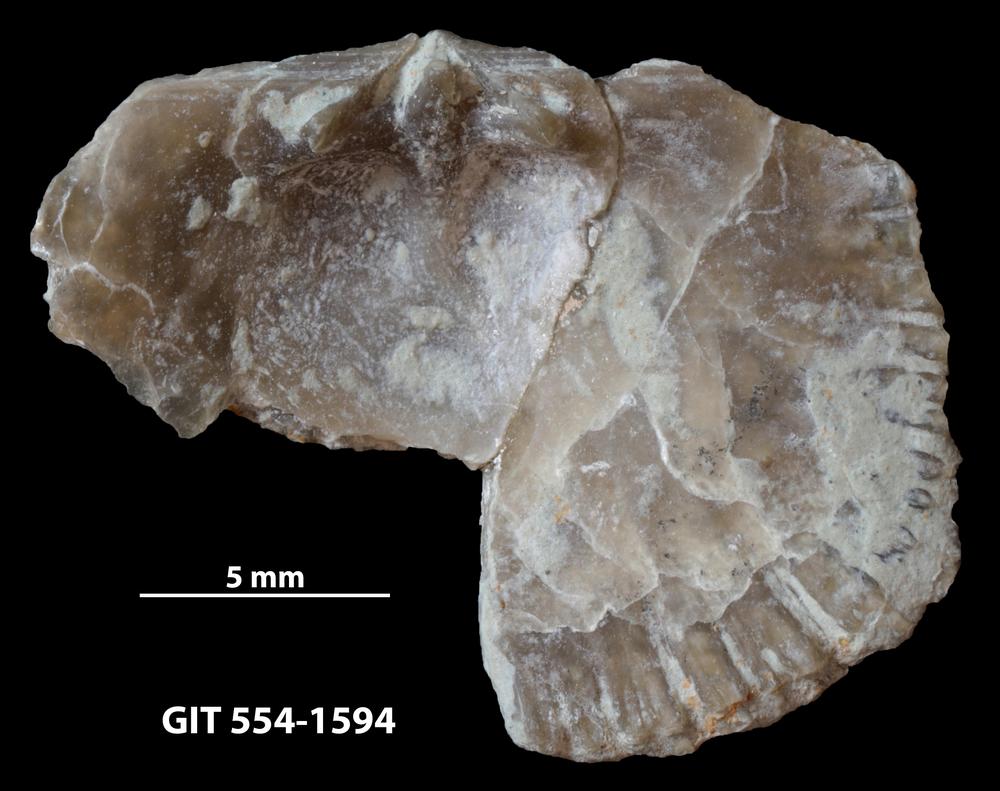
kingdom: Animalia
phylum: Brachiopoda
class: Rhynchonellata
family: Dolerorthidae
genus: Glyptorthis
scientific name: Glyptorthis irrupta
